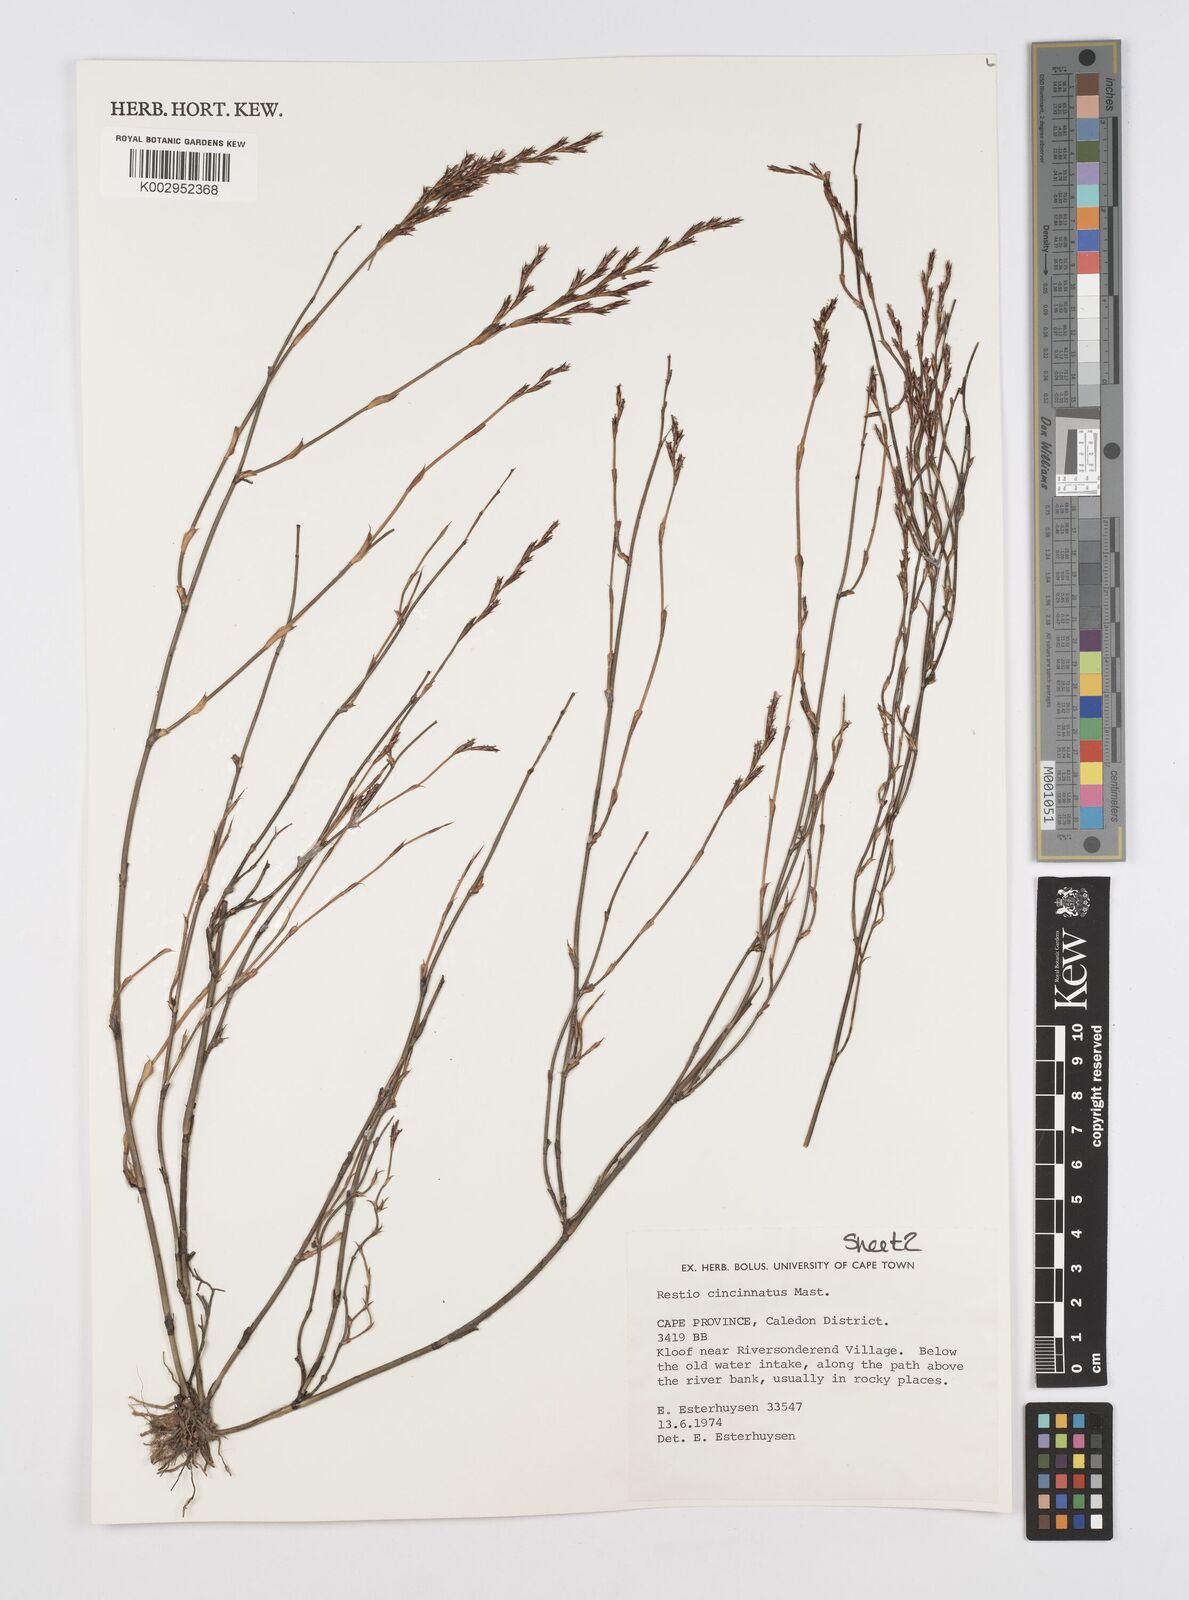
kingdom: Plantae
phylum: Tracheophyta
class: Liliopsida
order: Poales
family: Restionaceae
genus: Restio
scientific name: Restio cincinnatus
